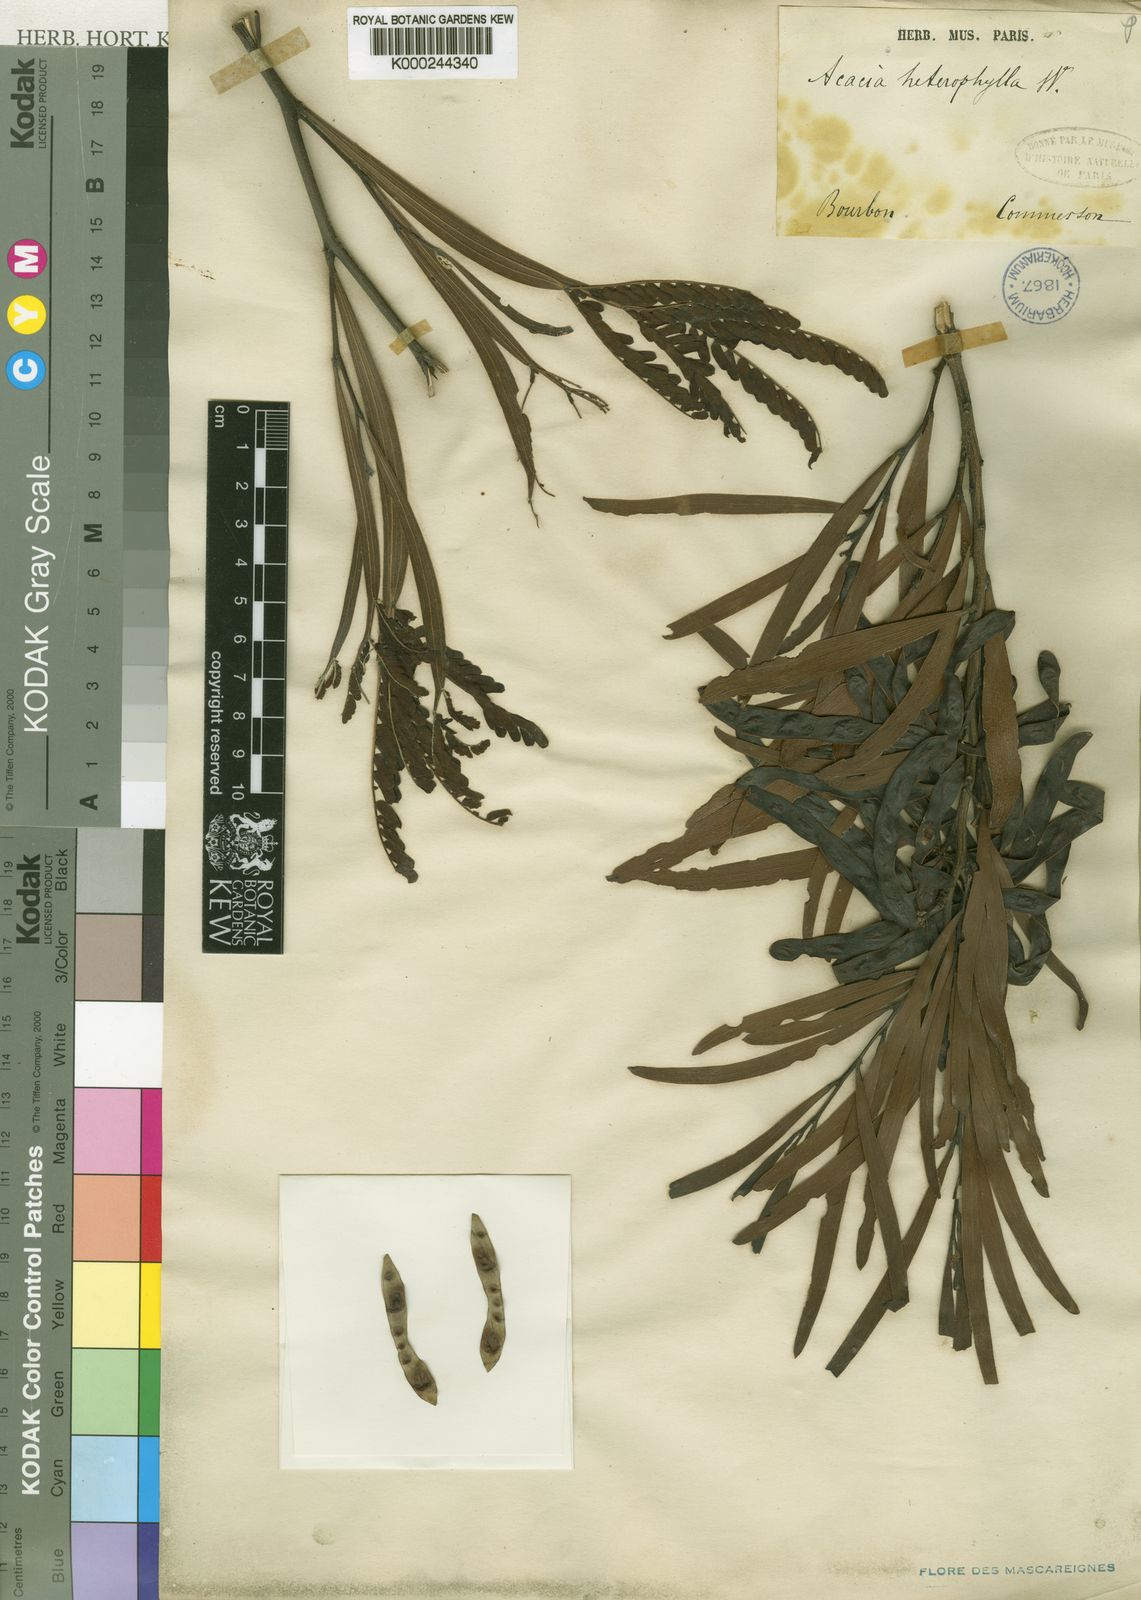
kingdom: Plantae
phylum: Tracheophyta
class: Magnoliopsida
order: Fabales
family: Fabaceae
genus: Acacia
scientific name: Acacia heterophylla
